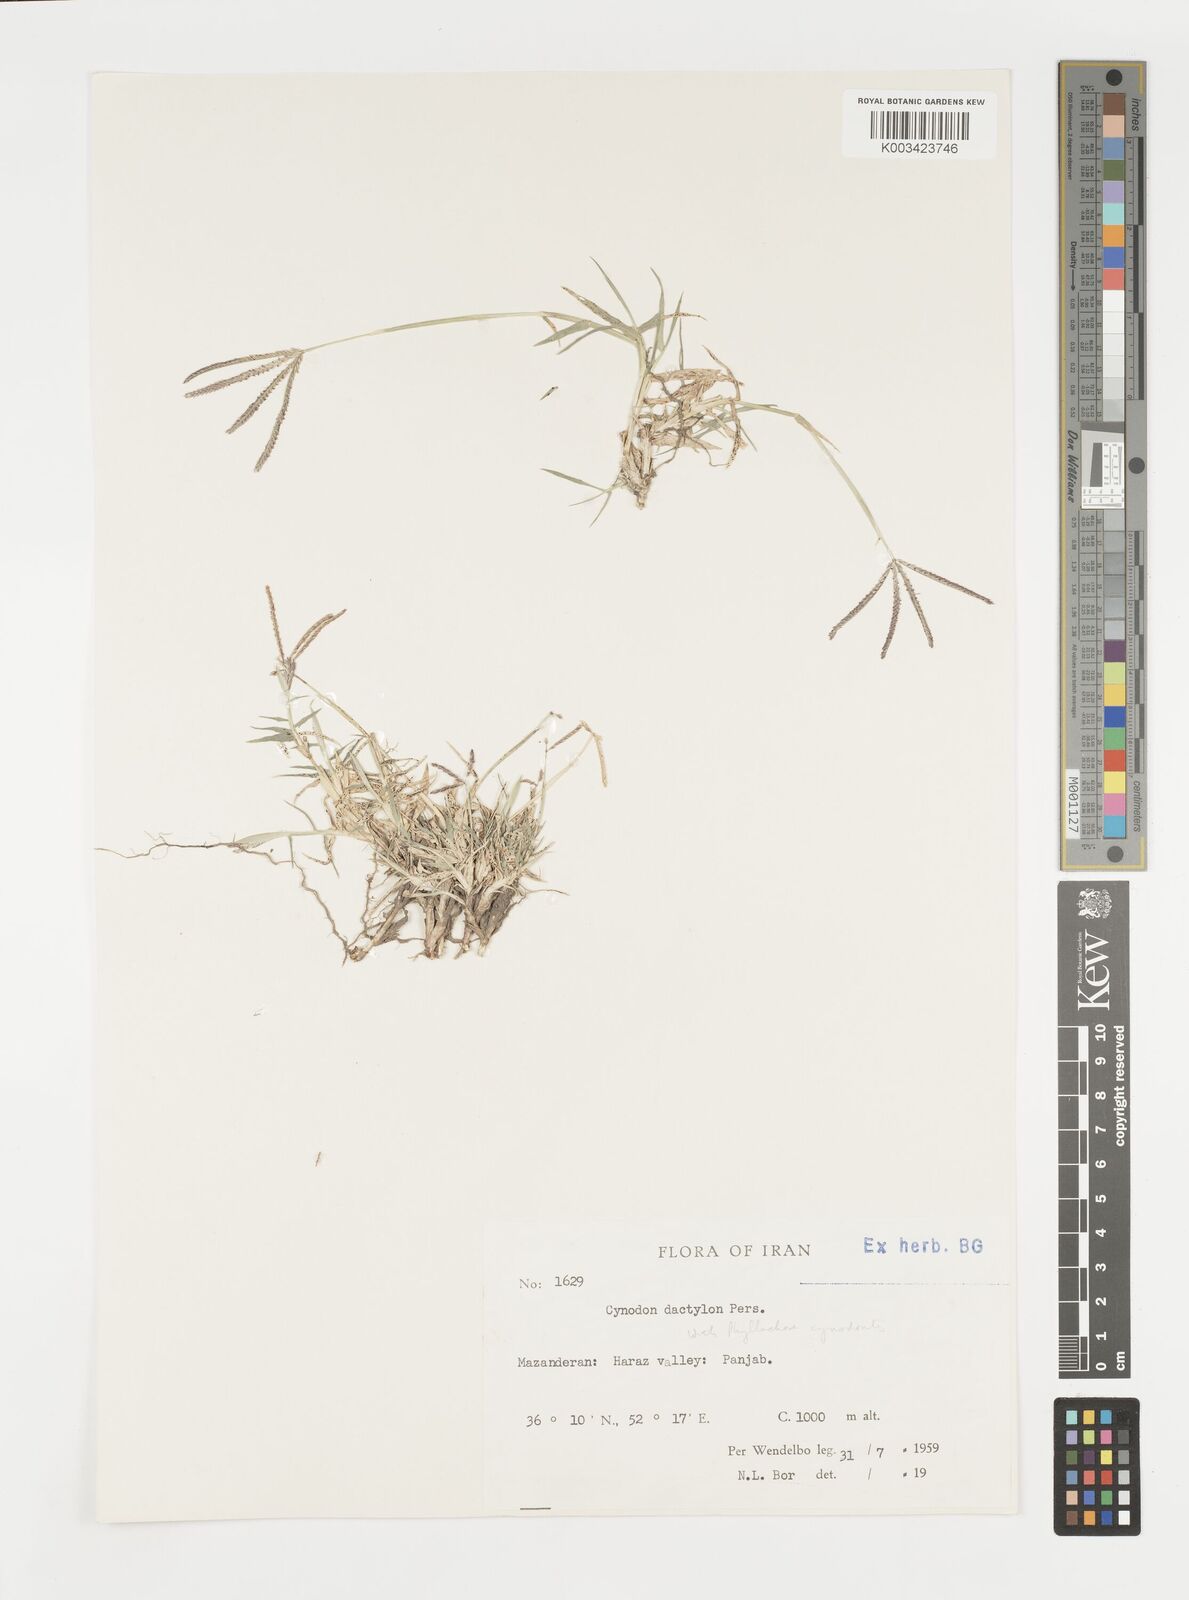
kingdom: Plantae
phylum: Tracheophyta
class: Liliopsida
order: Poales
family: Poaceae
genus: Cynodon
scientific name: Cynodon dactylon
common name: Bermuda grass
